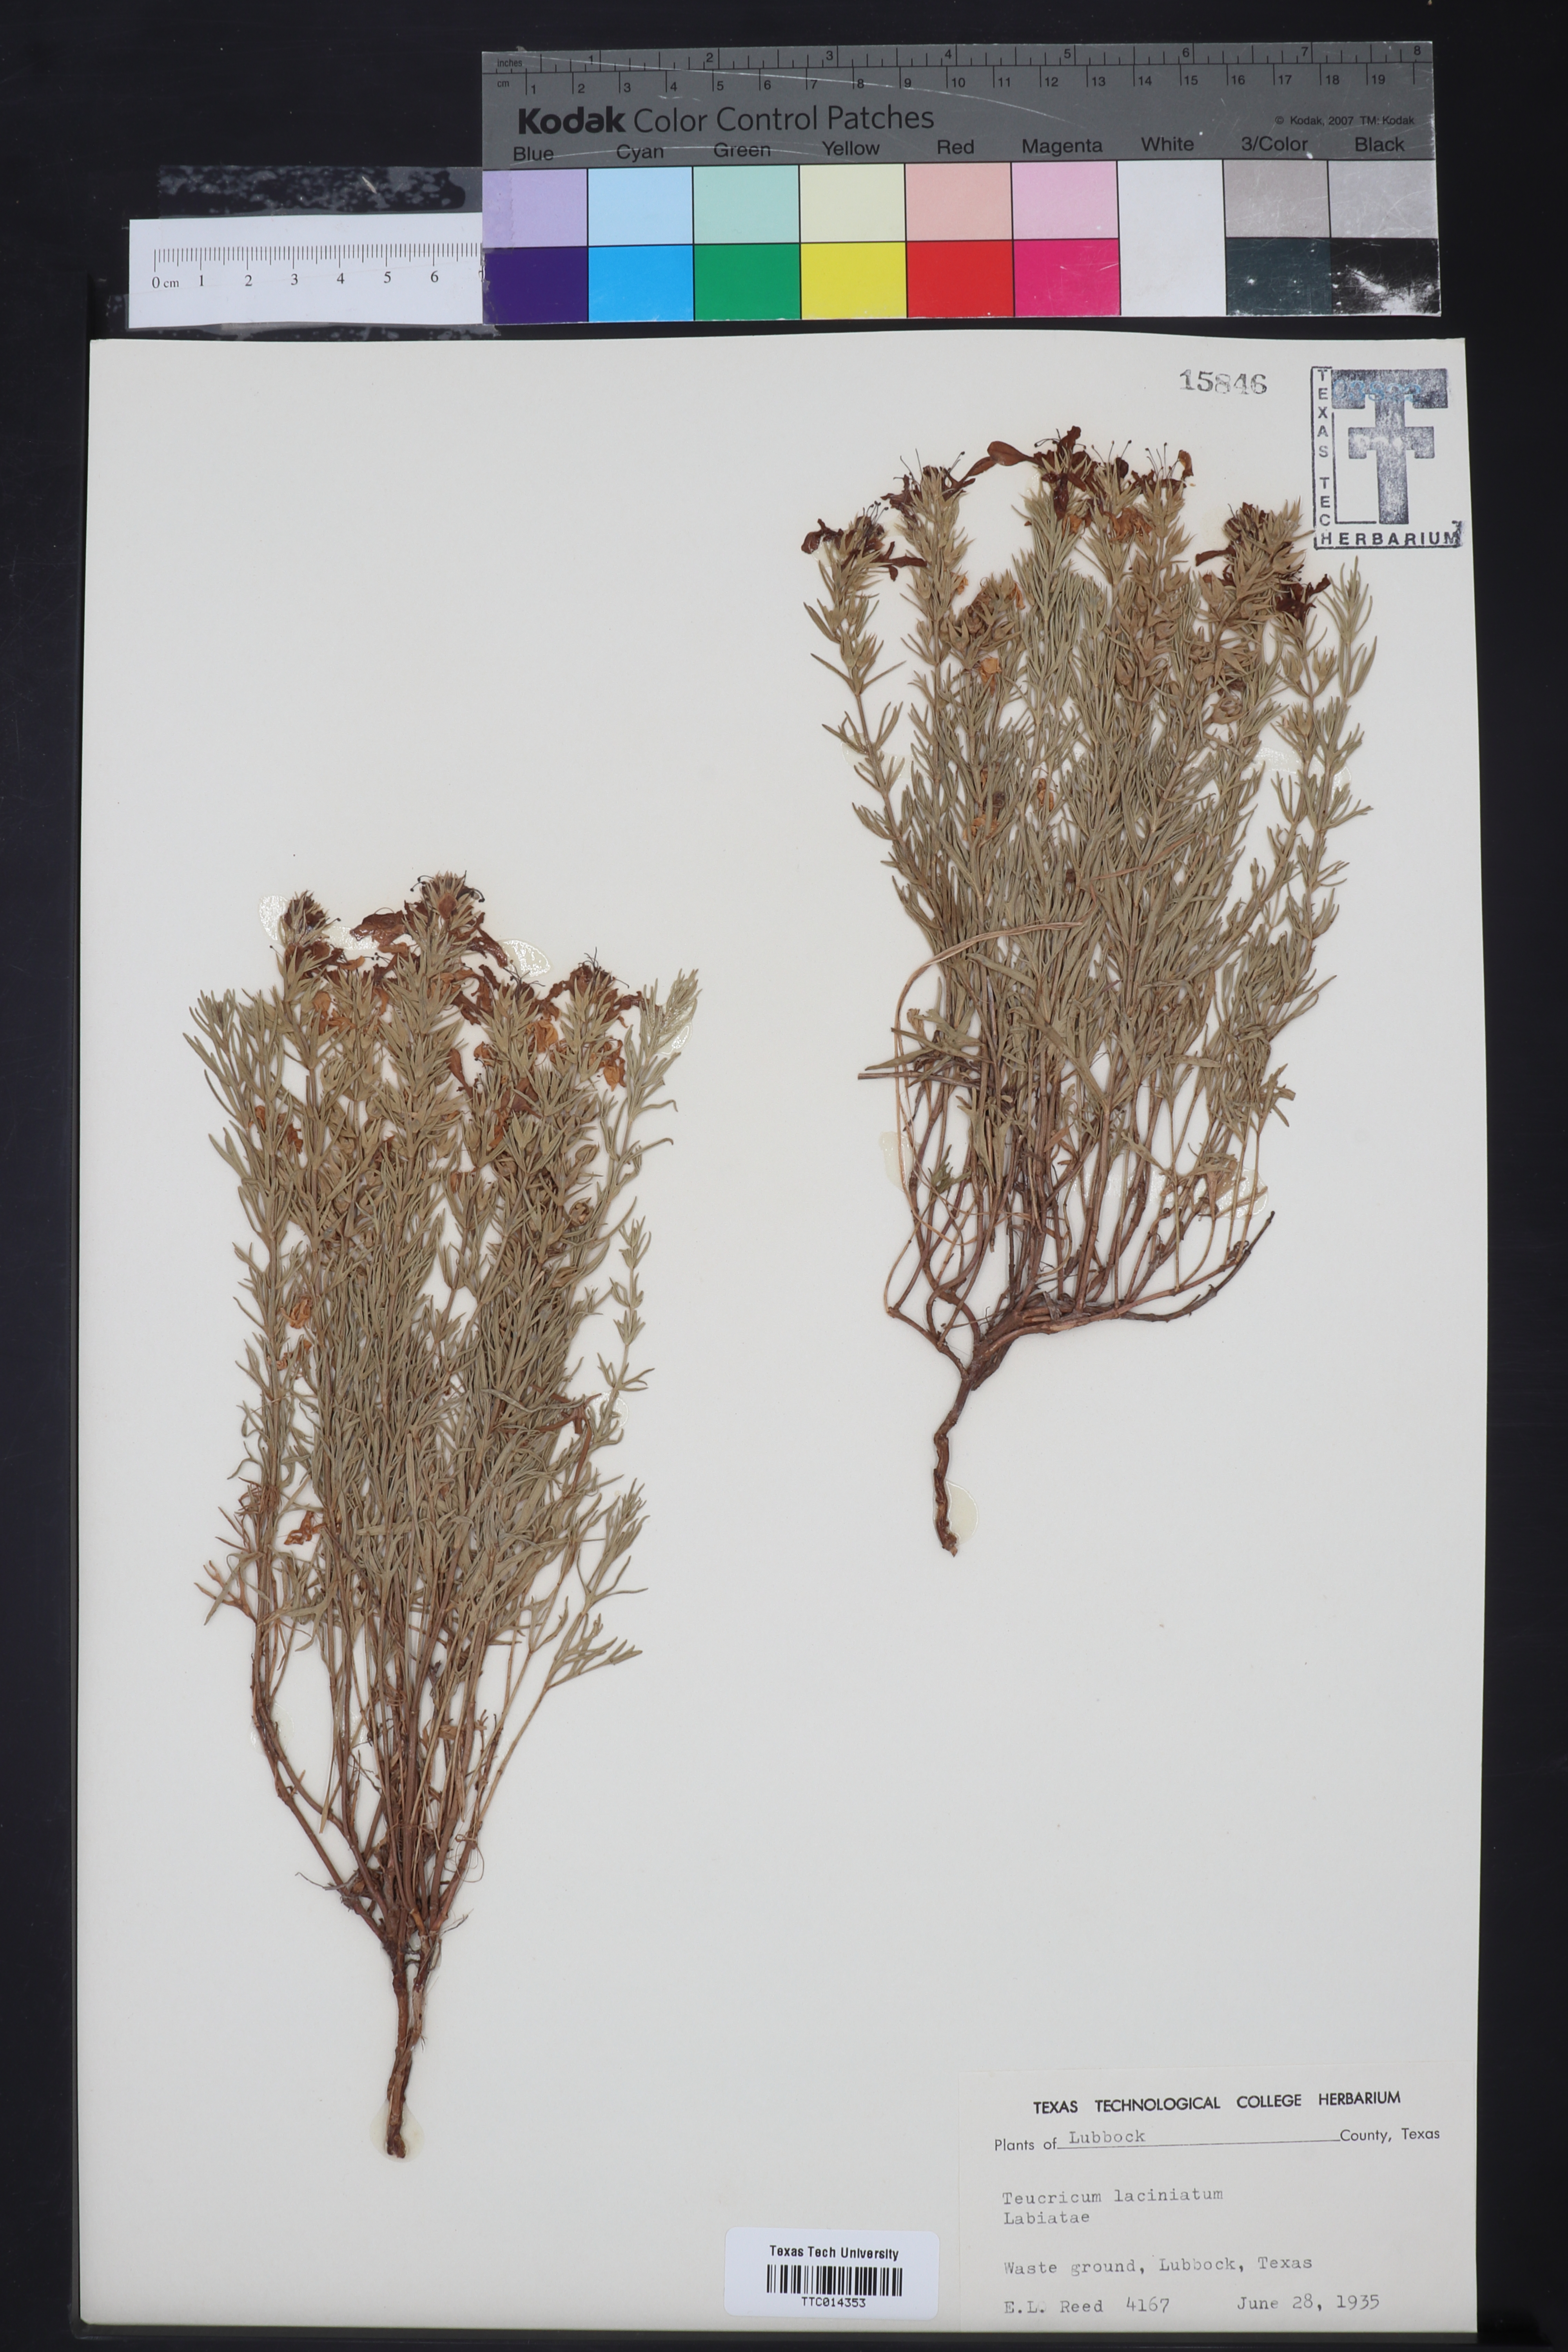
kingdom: Plantae
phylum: Tracheophyta
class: Magnoliopsida
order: Lamiales
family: Lamiaceae
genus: Teucrium
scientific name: Teucrium laciniatum
